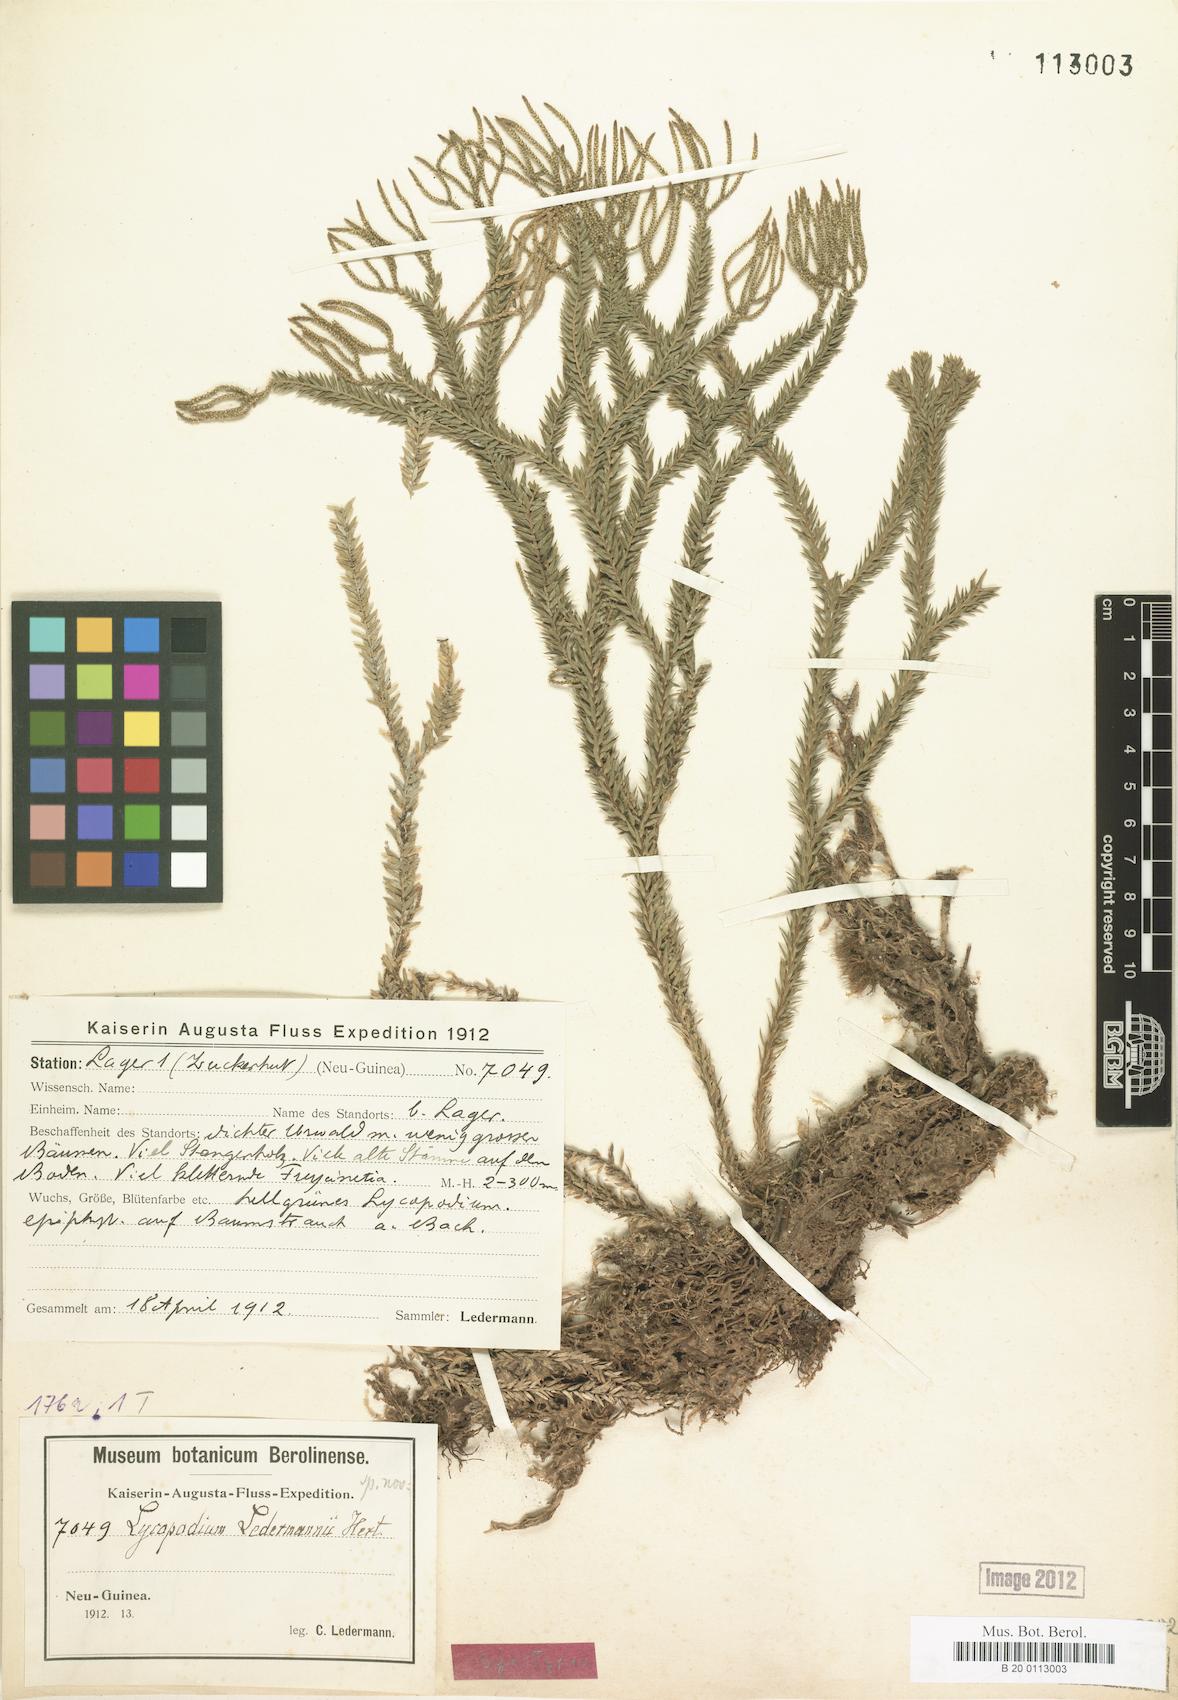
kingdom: Plantae
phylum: Tracheophyta
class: Lycopodiopsida
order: Lycopodiales
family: Lycopodiaceae
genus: Phlegmariurus
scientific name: Phlegmariurus ledermannii
